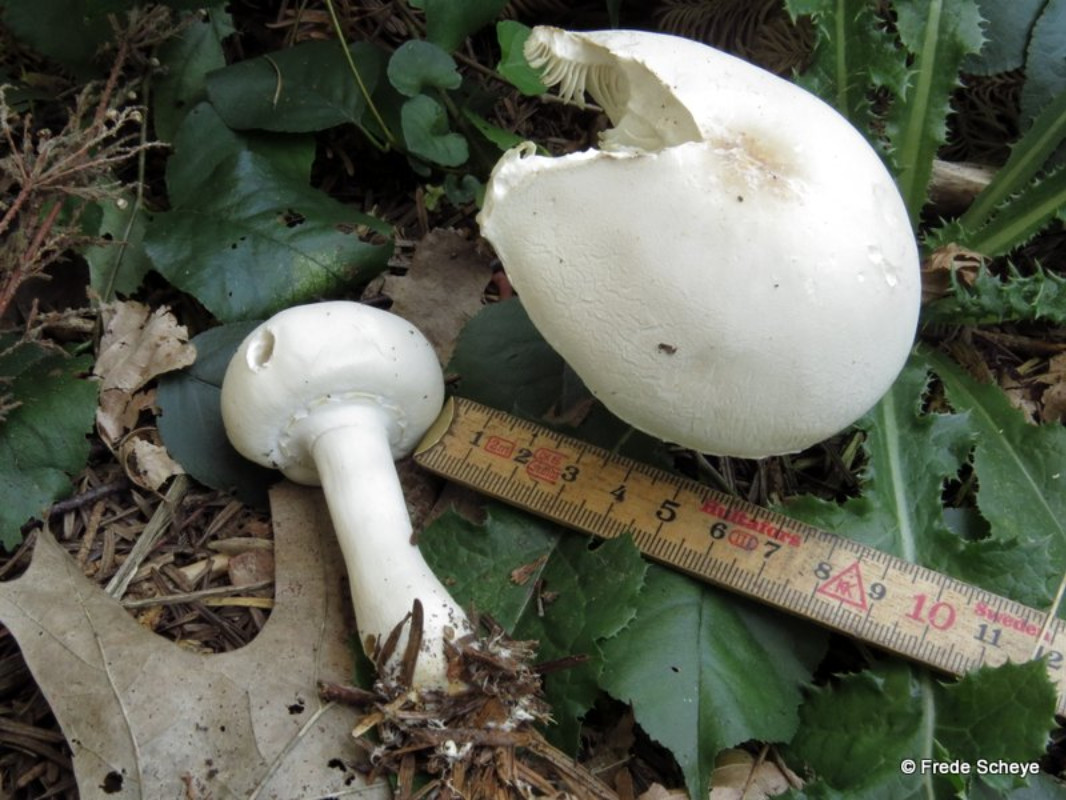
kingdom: Fungi
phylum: Basidiomycota
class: Agaricomycetes
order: Agaricales
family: Agaricaceae
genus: Leucoagaricus
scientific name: Leucoagaricus leucothites
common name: rosabladet silkehat
